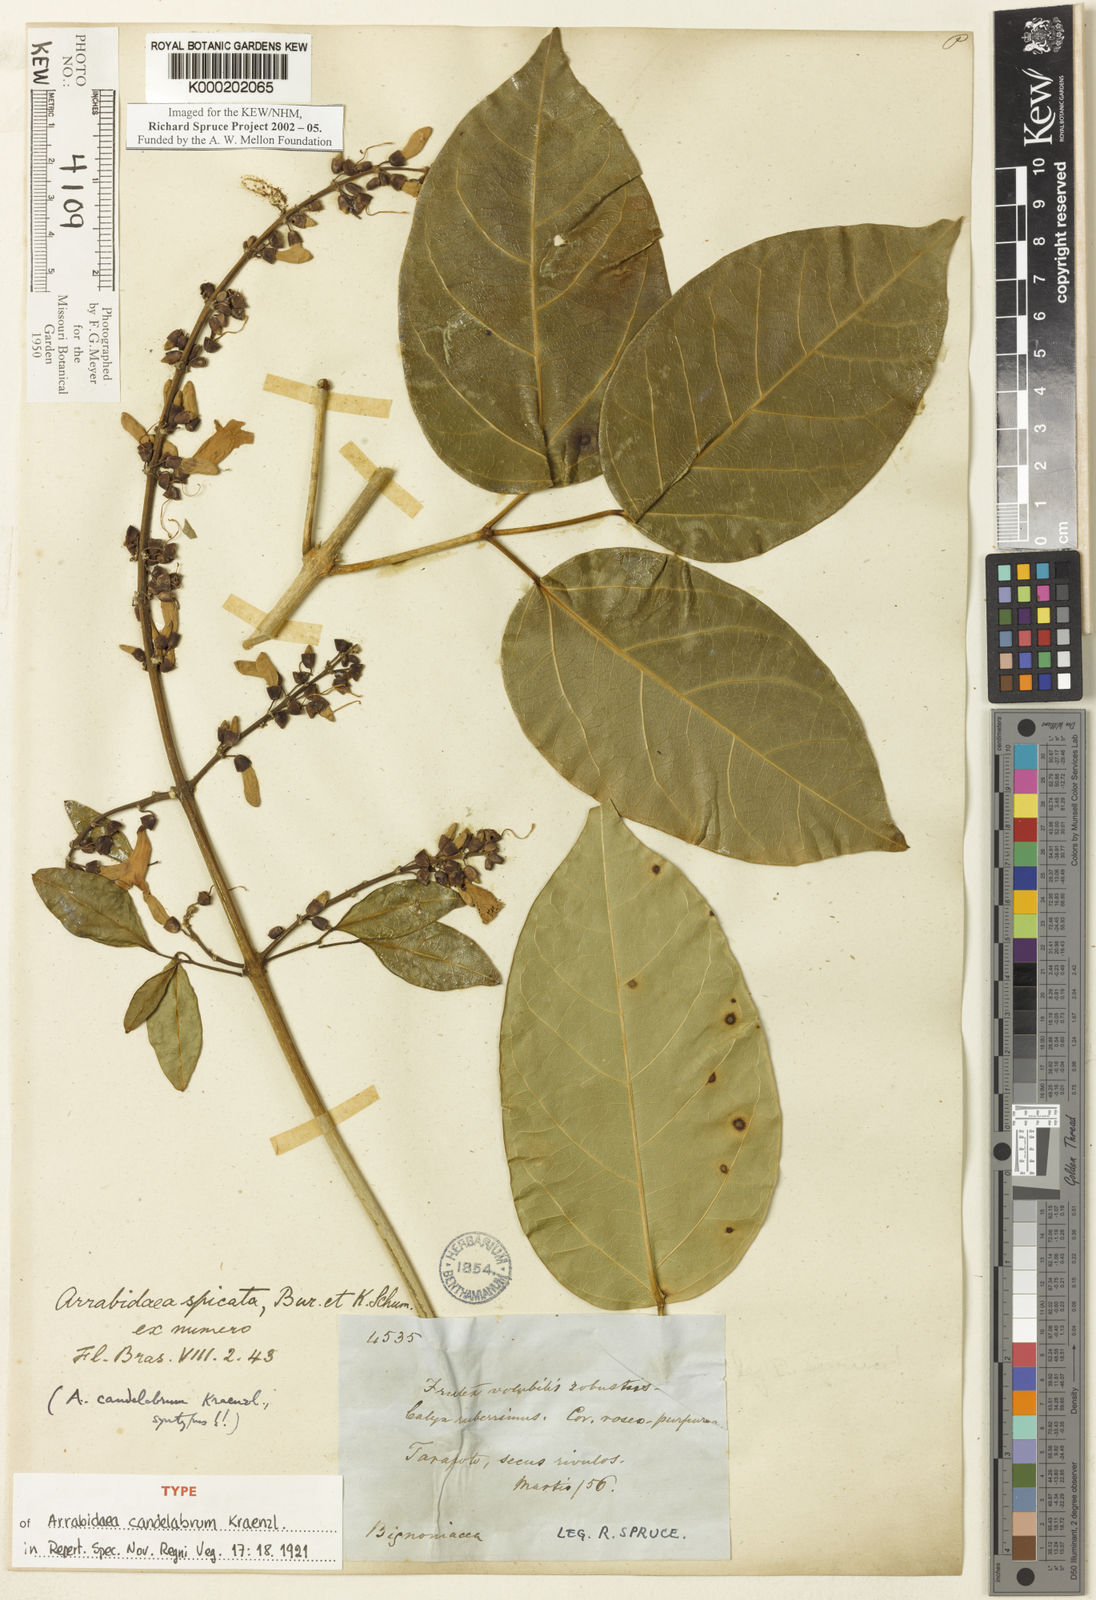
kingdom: Plantae
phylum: Tracheophyta
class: Magnoliopsida
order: Lamiales
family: Bignoniaceae
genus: Fridericia
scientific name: Fridericia spicata
